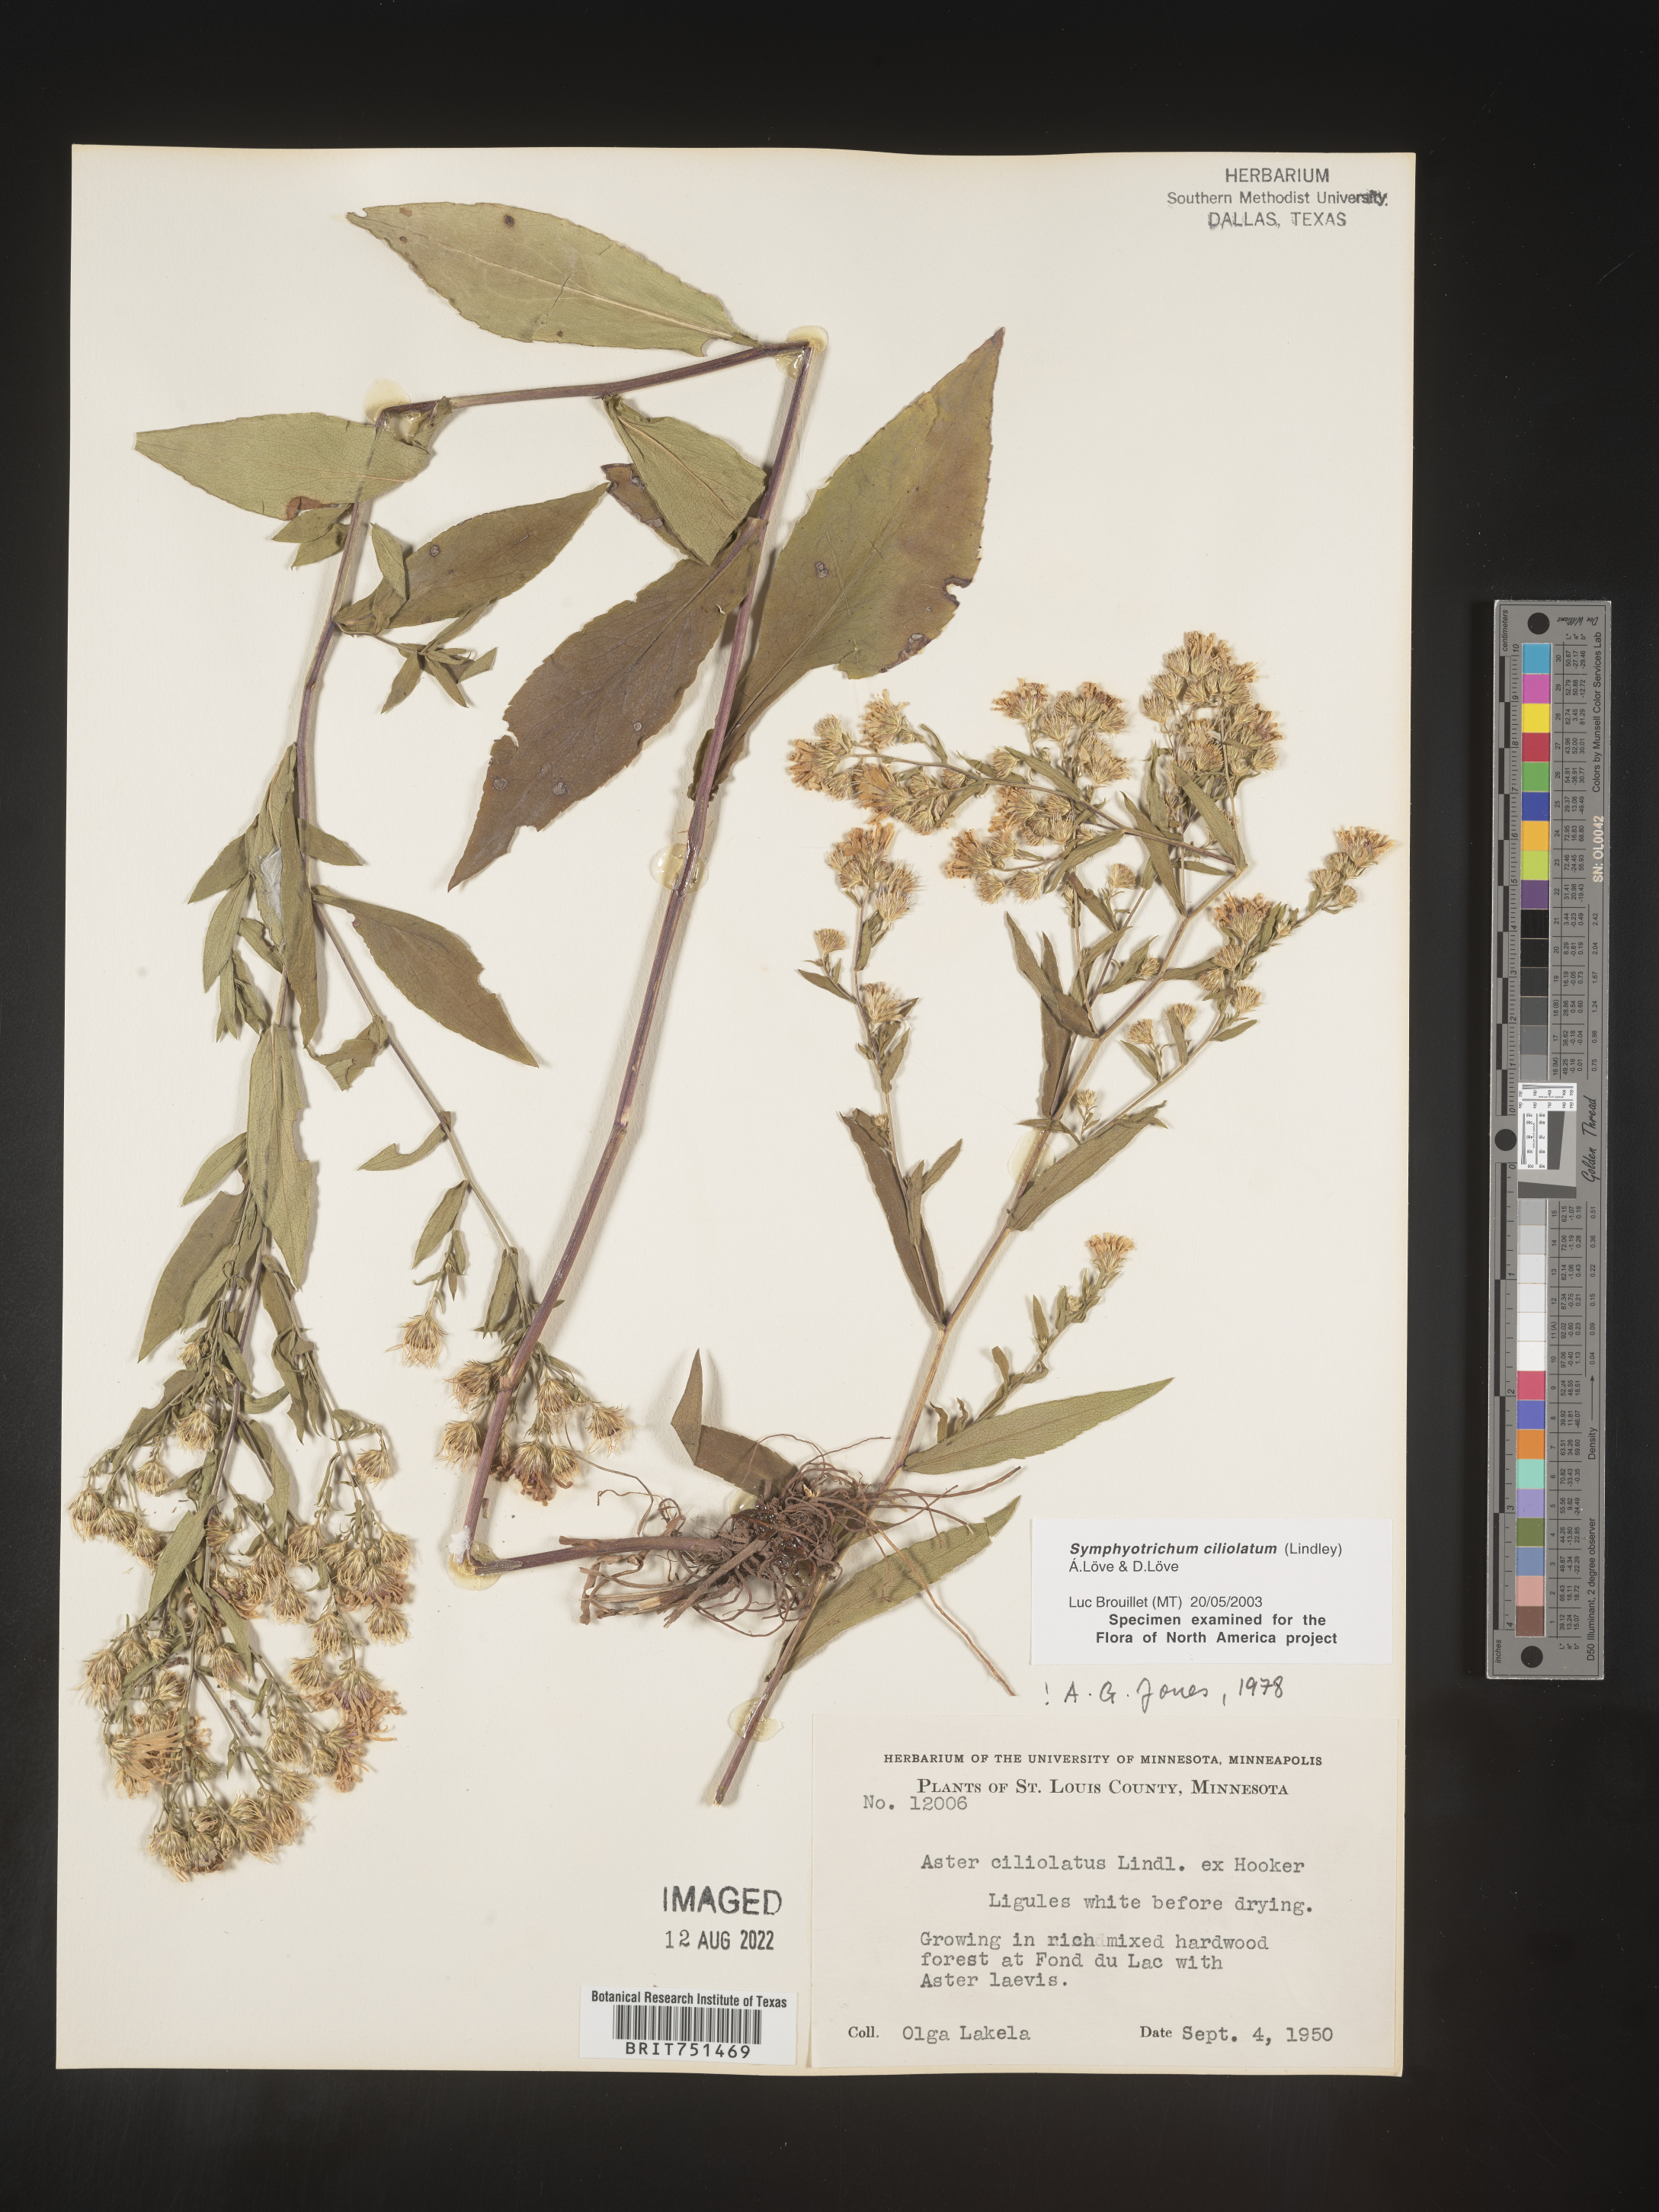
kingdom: Plantae
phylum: Tracheophyta
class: Magnoliopsida
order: Asterales
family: Asteraceae
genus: Symphyotrichum
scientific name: Symphyotrichum ciliolatum
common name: Fringed blue aster
